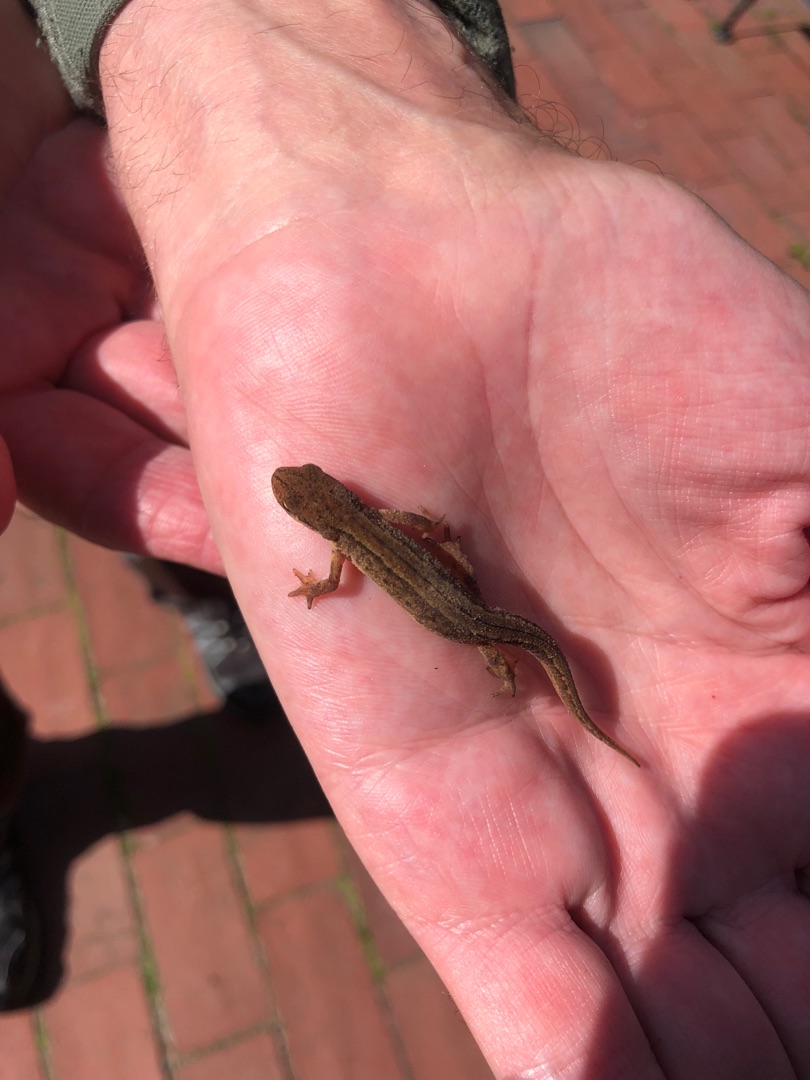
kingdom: Animalia
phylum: Chordata
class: Amphibia
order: Caudata
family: Salamandridae
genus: Lissotriton
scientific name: Lissotriton vulgaris
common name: Lille vandsalamander
